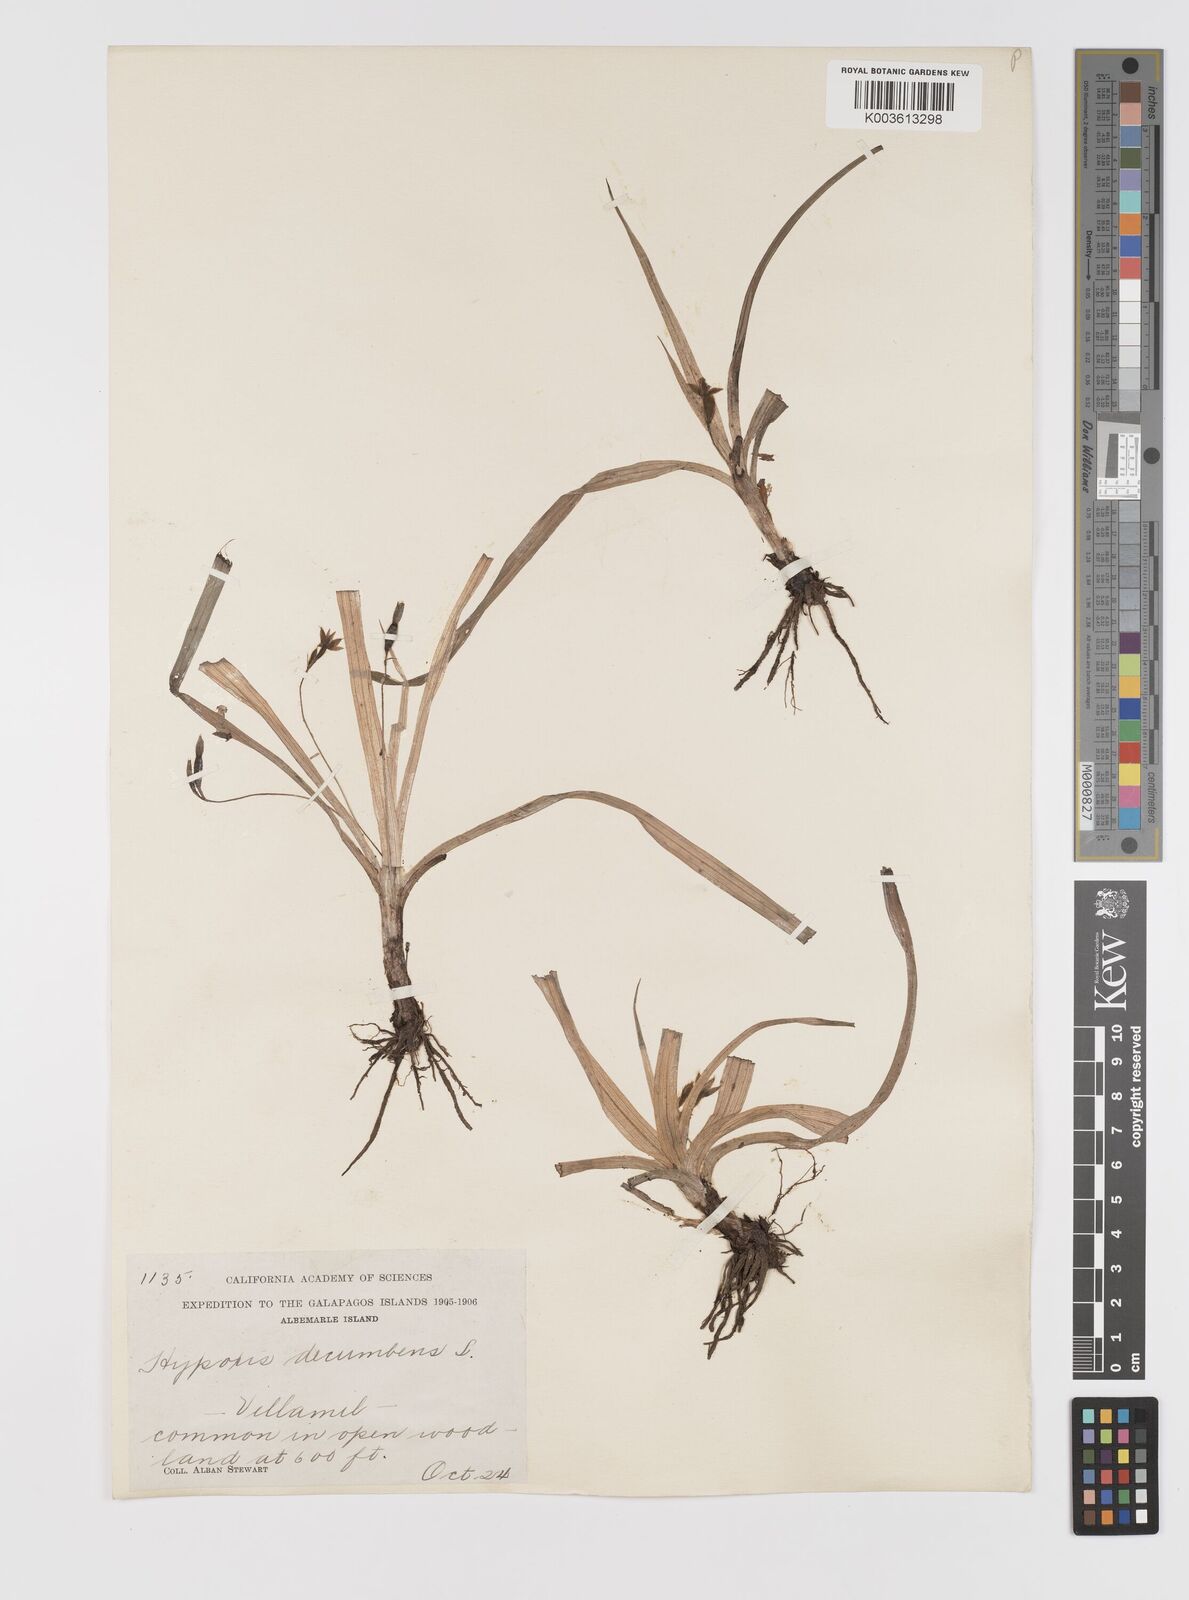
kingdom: Plantae
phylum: Tracheophyta
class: Liliopsida
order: Asparagales
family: Hypoxidaceae
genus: Hypoxis
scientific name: Hypoxis decumbens
